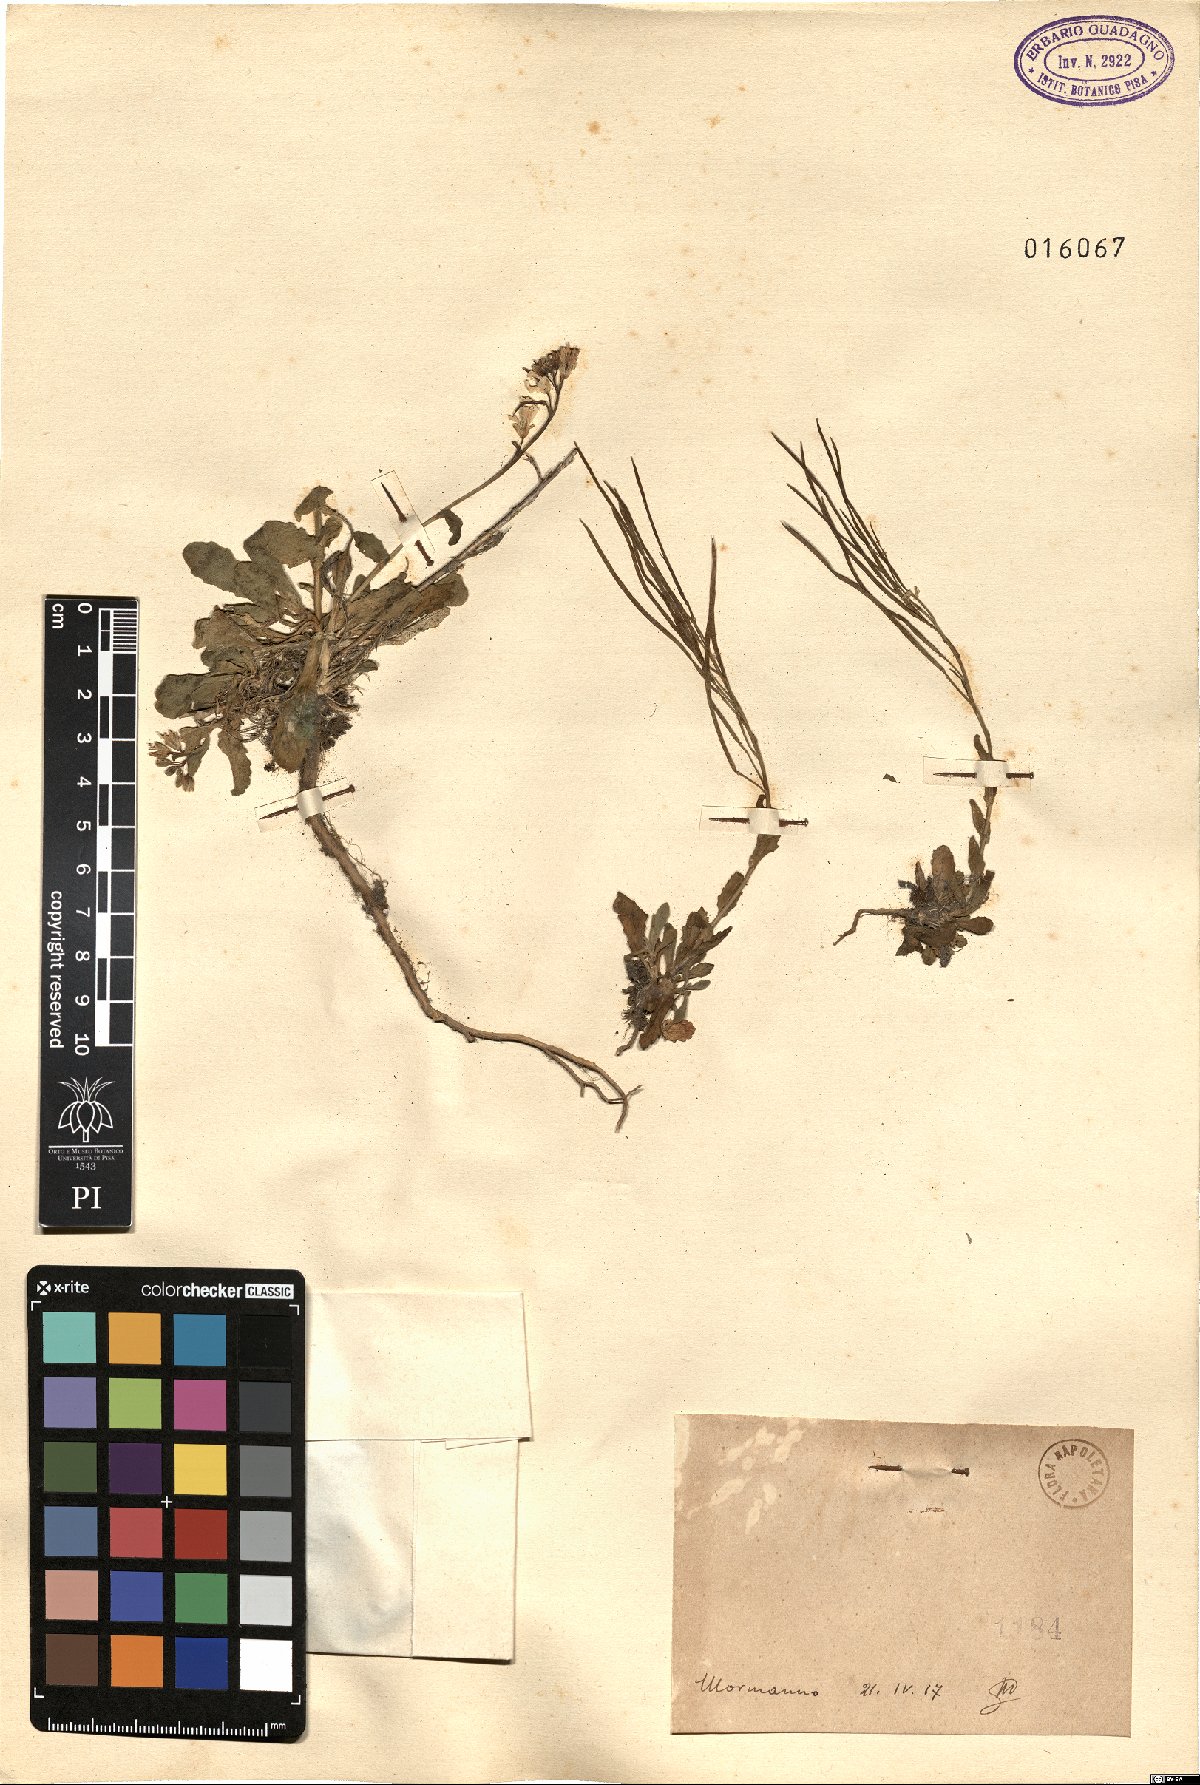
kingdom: Plantae
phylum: Tracheophyta
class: Magnoliopsida
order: Brassicales
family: Brassicaceae
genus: Arabis
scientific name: Arabis
